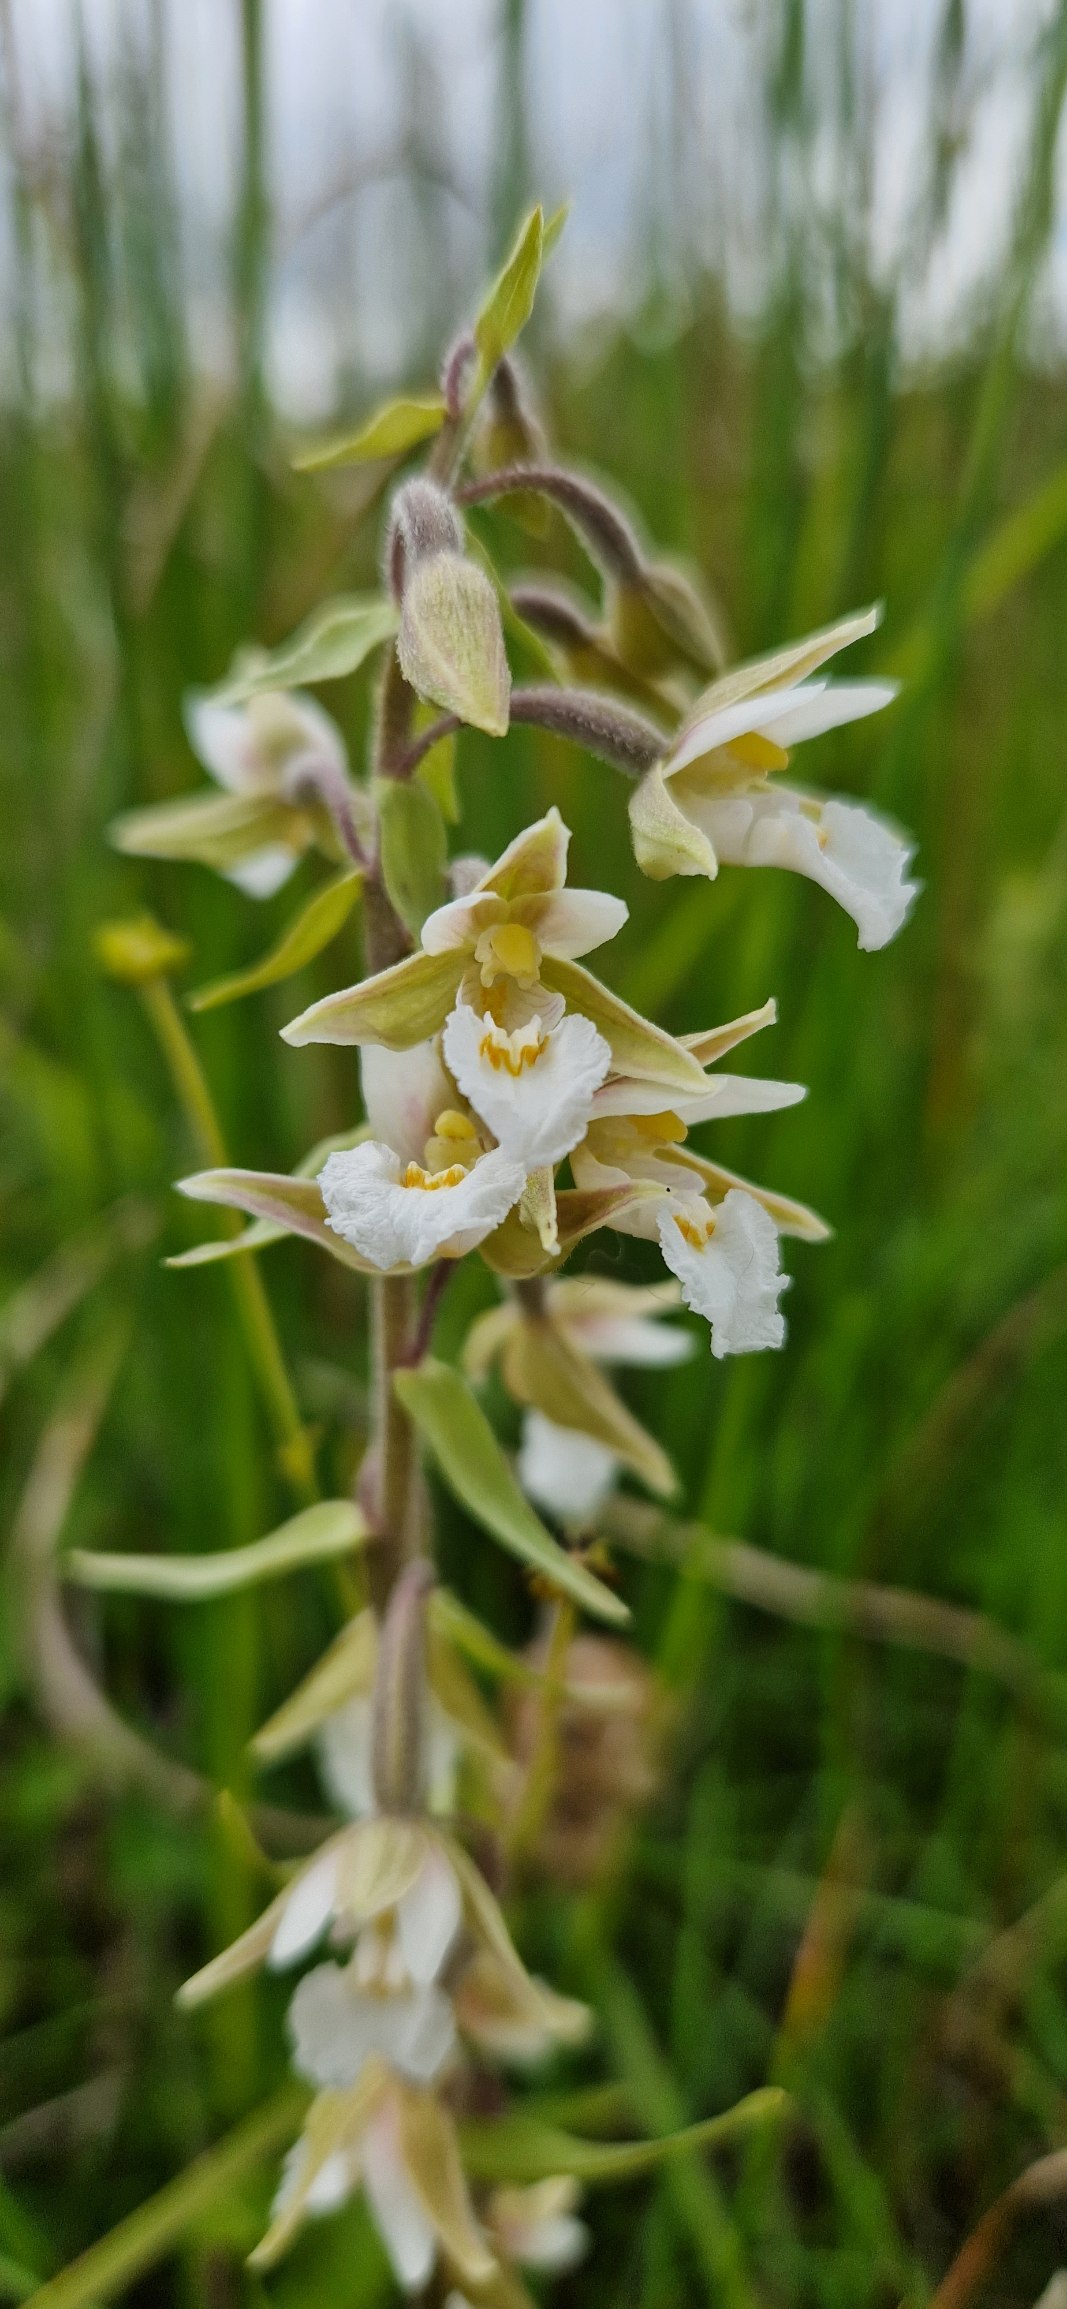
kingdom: Plantae
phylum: Tracheophyta
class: Liliopsida
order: Asparagales
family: Orchidaceae
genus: Epipactis
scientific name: Epipactis palustris
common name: Sump-hullæbe
